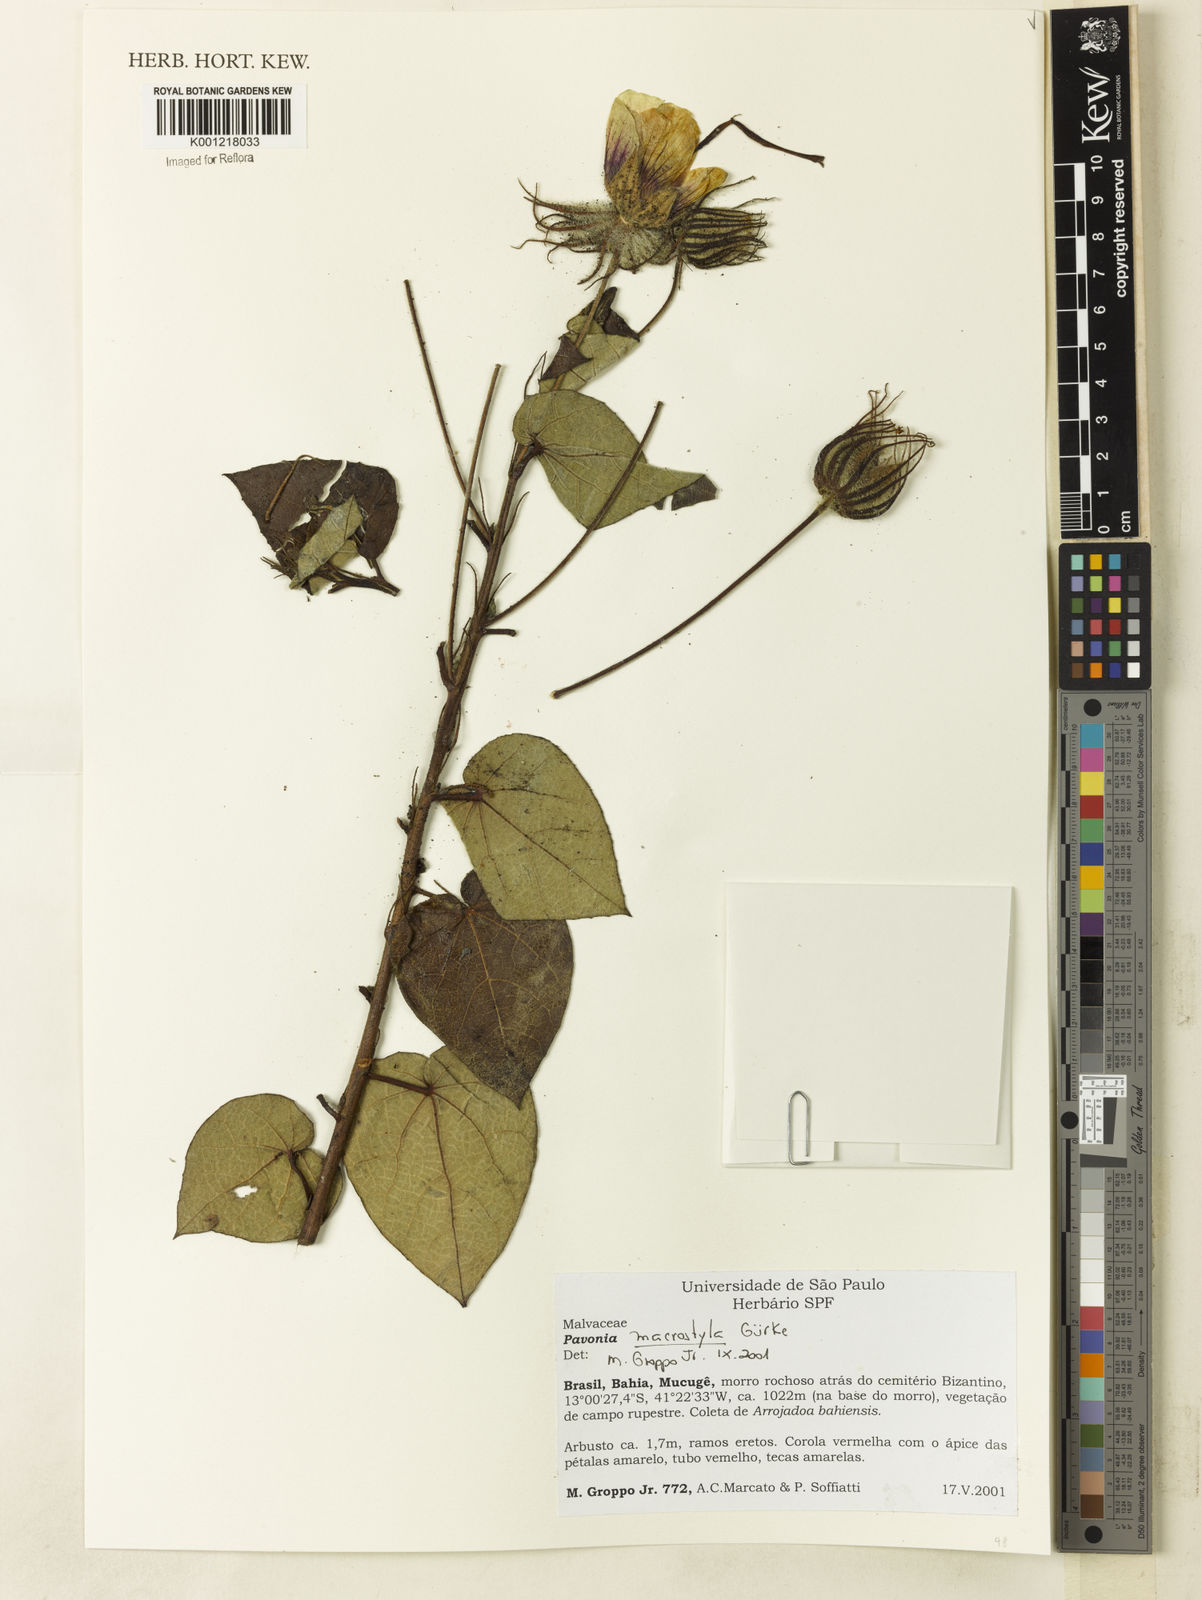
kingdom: Plantae
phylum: Tracheophyta
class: Magnoliopsida
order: Malvales
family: Malvaceae
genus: Pavonia
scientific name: Pavonia
